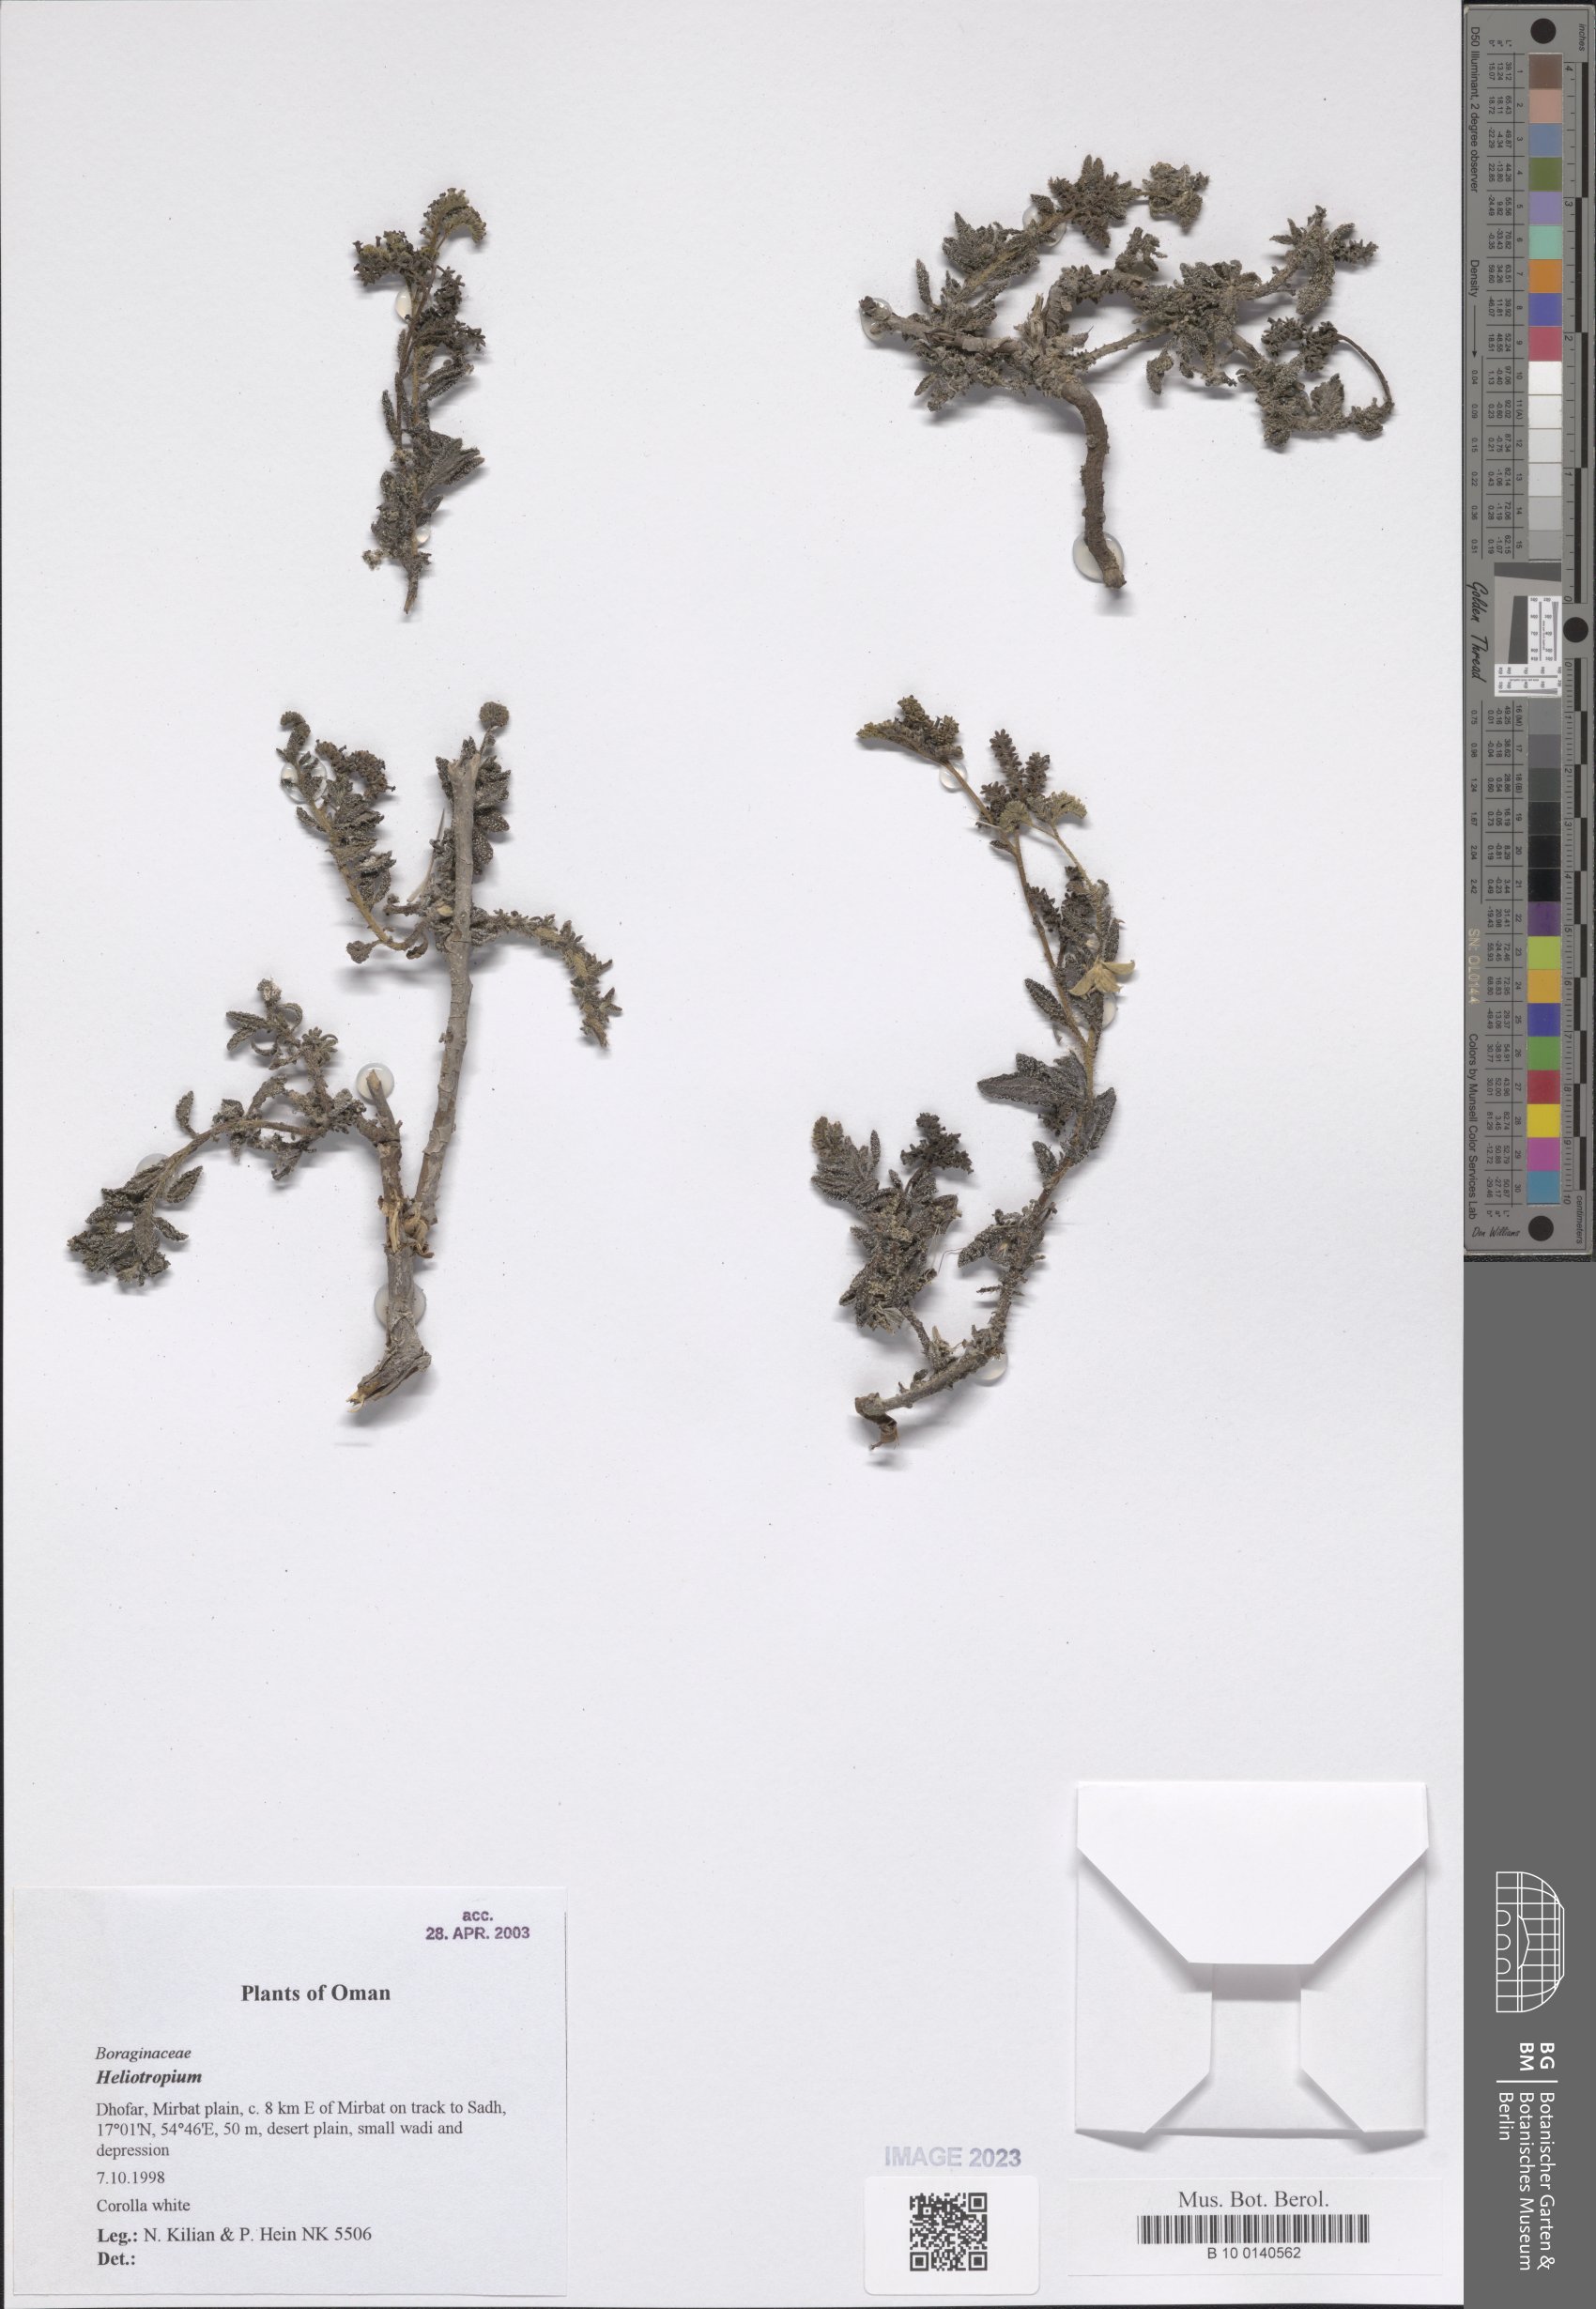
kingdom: Plantae
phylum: Tracheophyta
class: Magnoliopsida
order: Boraginales
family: Heliotropiaceae
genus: Heliotropium
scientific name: Heliotropium
